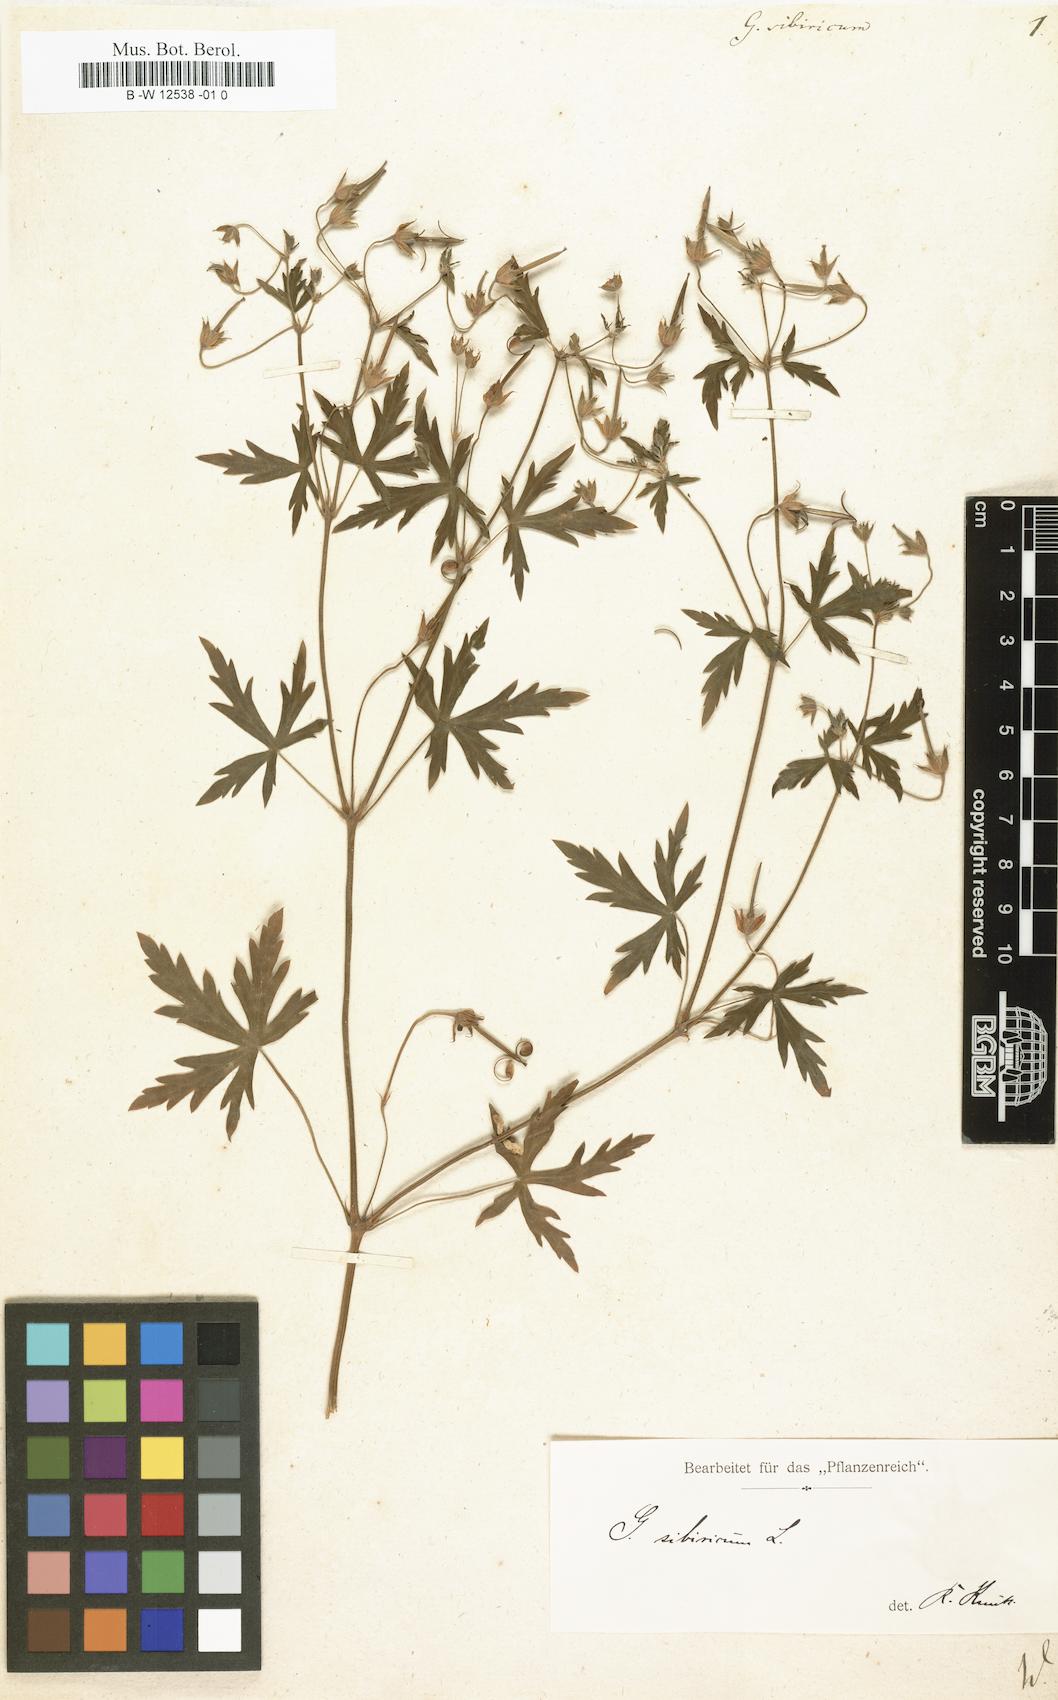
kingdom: Plantae
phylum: Tracheophyta
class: Magnoliopsida
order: Geraniales
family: Geraniaceae
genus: Geranium
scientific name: Geranium sibiricum
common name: Siberian crane's-bill
